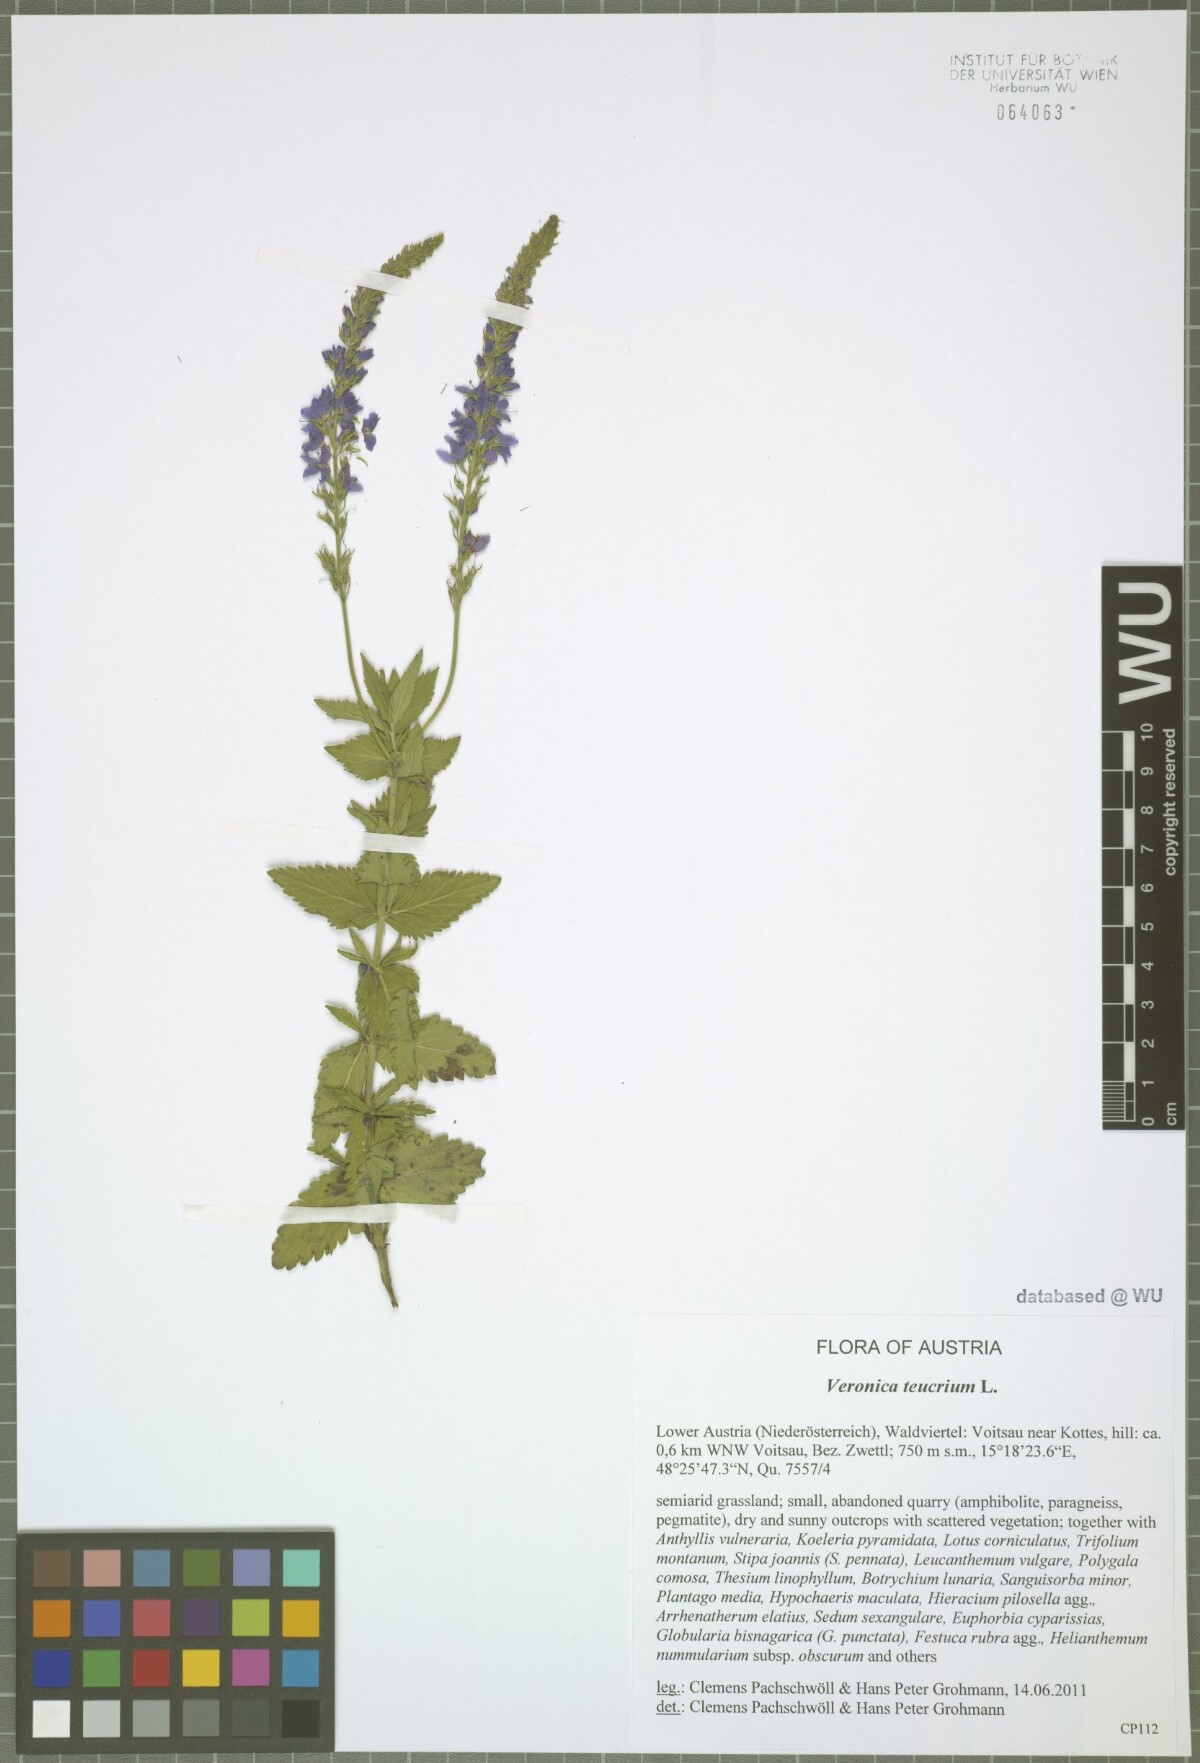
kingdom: Plantae
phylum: Tracheophyta
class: Magnoliopsida
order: Lamiales
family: Plantaginaceae
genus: Veronica
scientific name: Veronica teucrium
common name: Large speedwell
